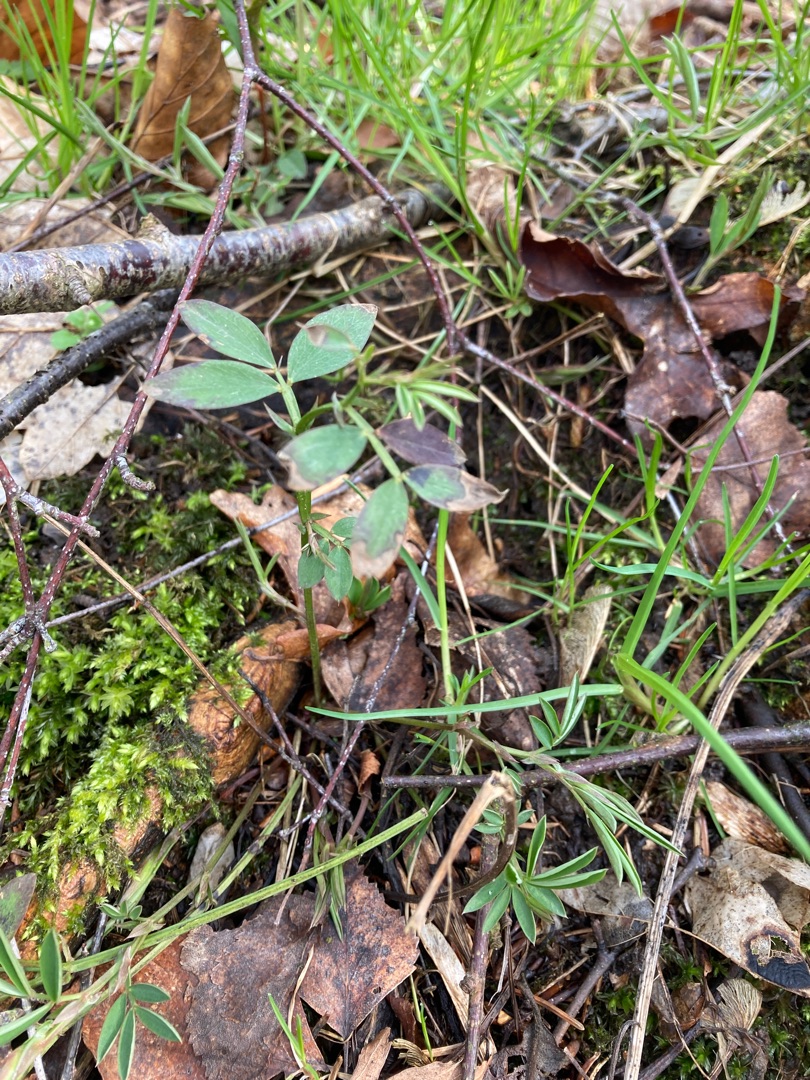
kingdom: Plantae
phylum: Tracheophyta
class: Magnoliopsida
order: Fabales
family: Fabaceae
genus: Lathyrus
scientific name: Lathyrus linifolius
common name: Krat-fladbælg
